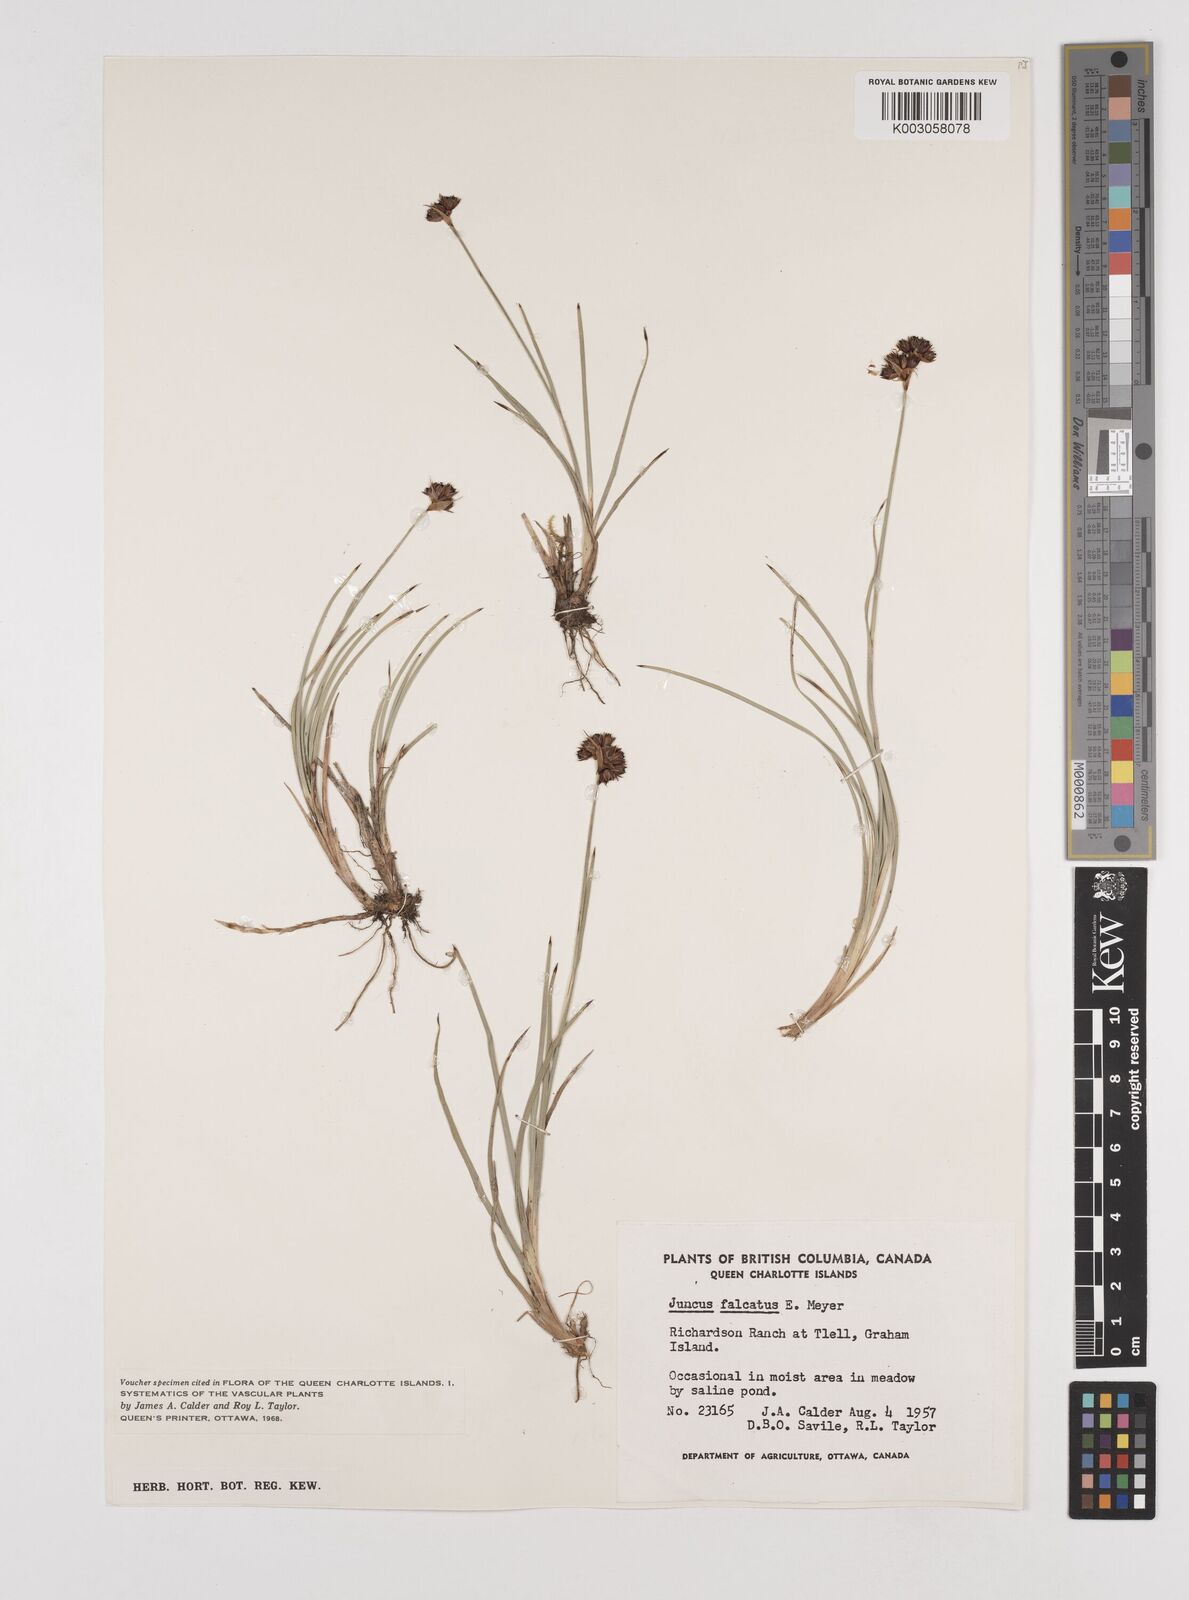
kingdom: Plantae
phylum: Tracheophyta
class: Liliopsida
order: Poales
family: Juncaceae
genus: Juncus
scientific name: Juncus falcatus
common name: Sickle-leaf rush
